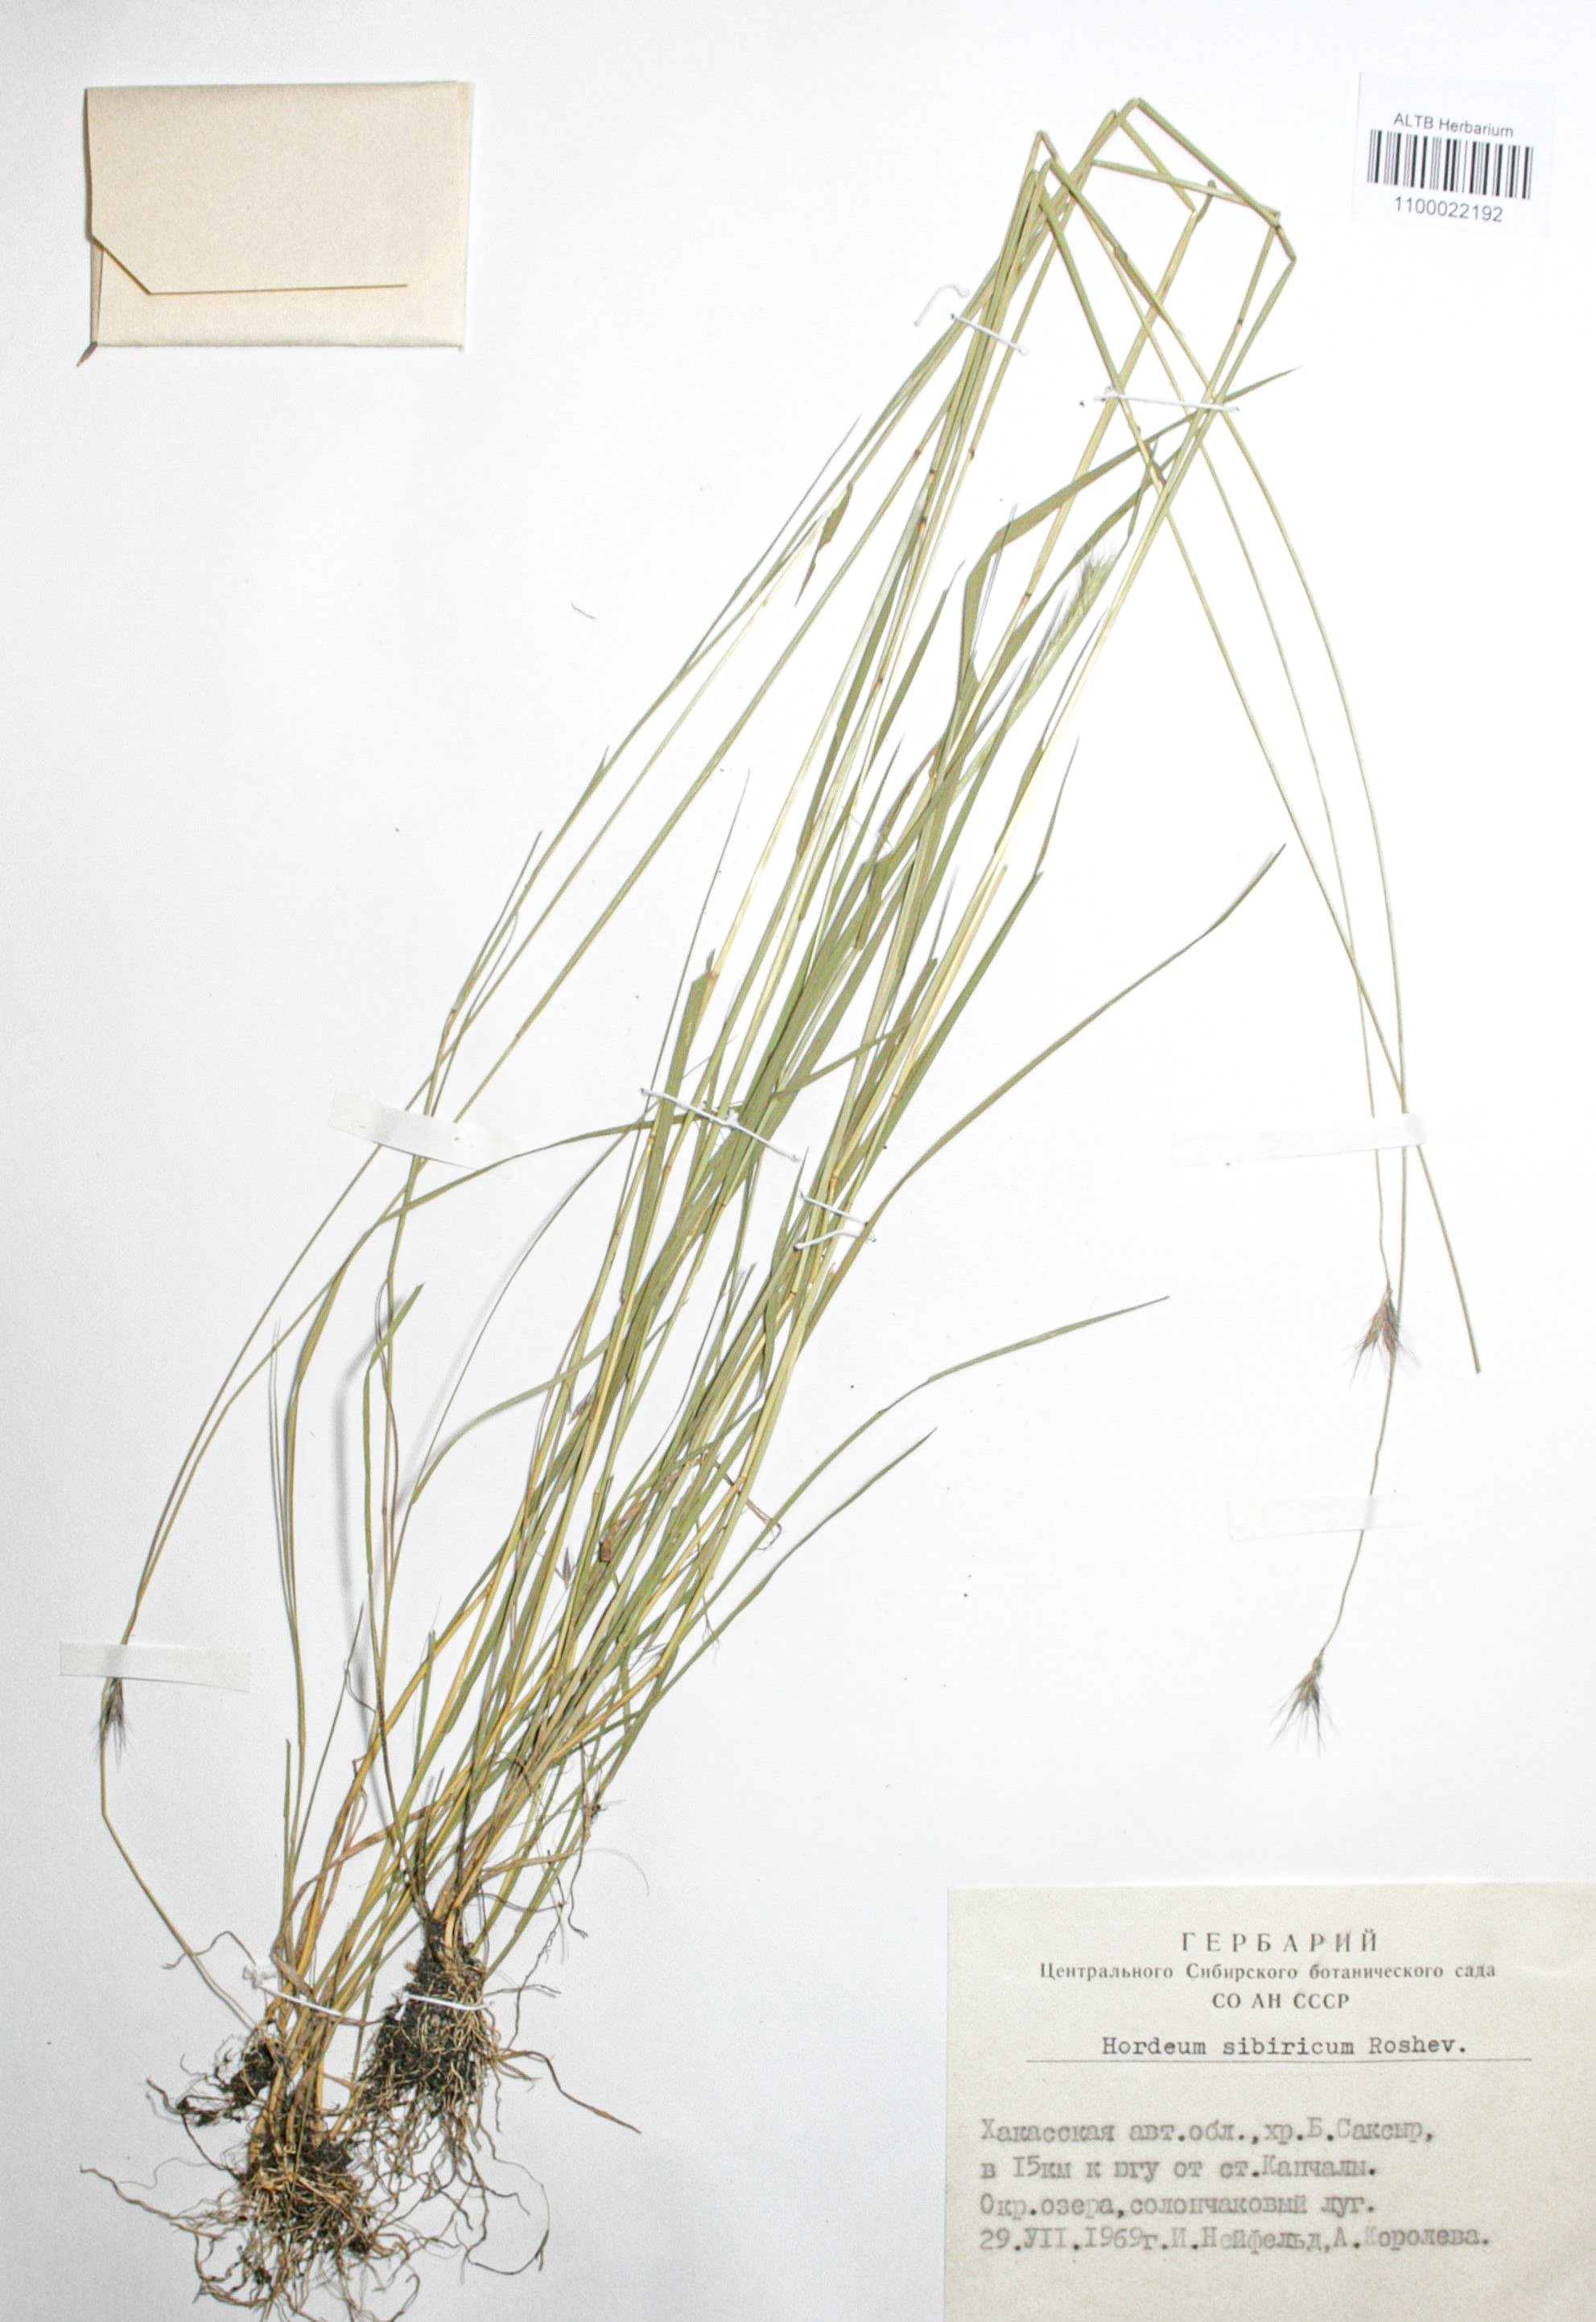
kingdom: Plantae
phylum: Tracheophyta
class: Liliopsida
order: Poales
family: Poaceae
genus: Hordeum
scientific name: Hordeum roshevitzii
